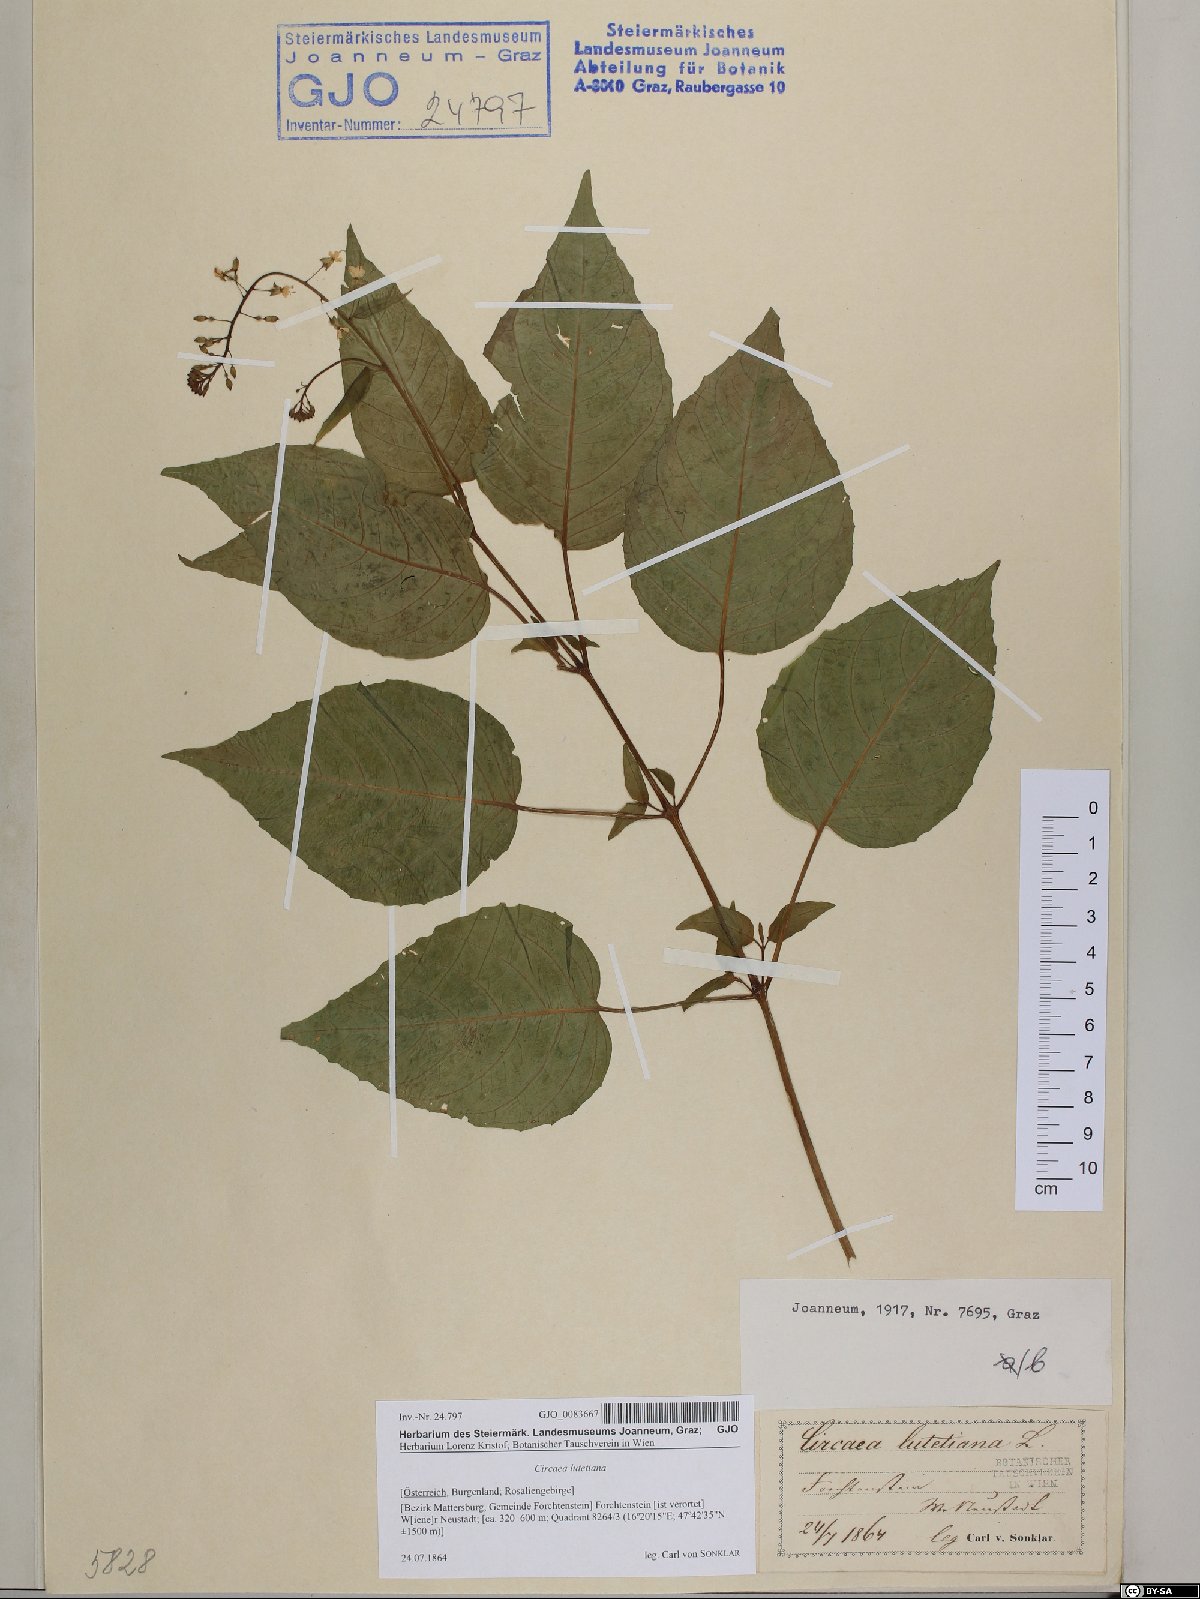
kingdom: Plantae
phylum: Tracheophyta
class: Magnoliopsida
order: Myrtales
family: Onagraceae
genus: Circaea
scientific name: Circaea lutetiana
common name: Enchanter's-nightshade
